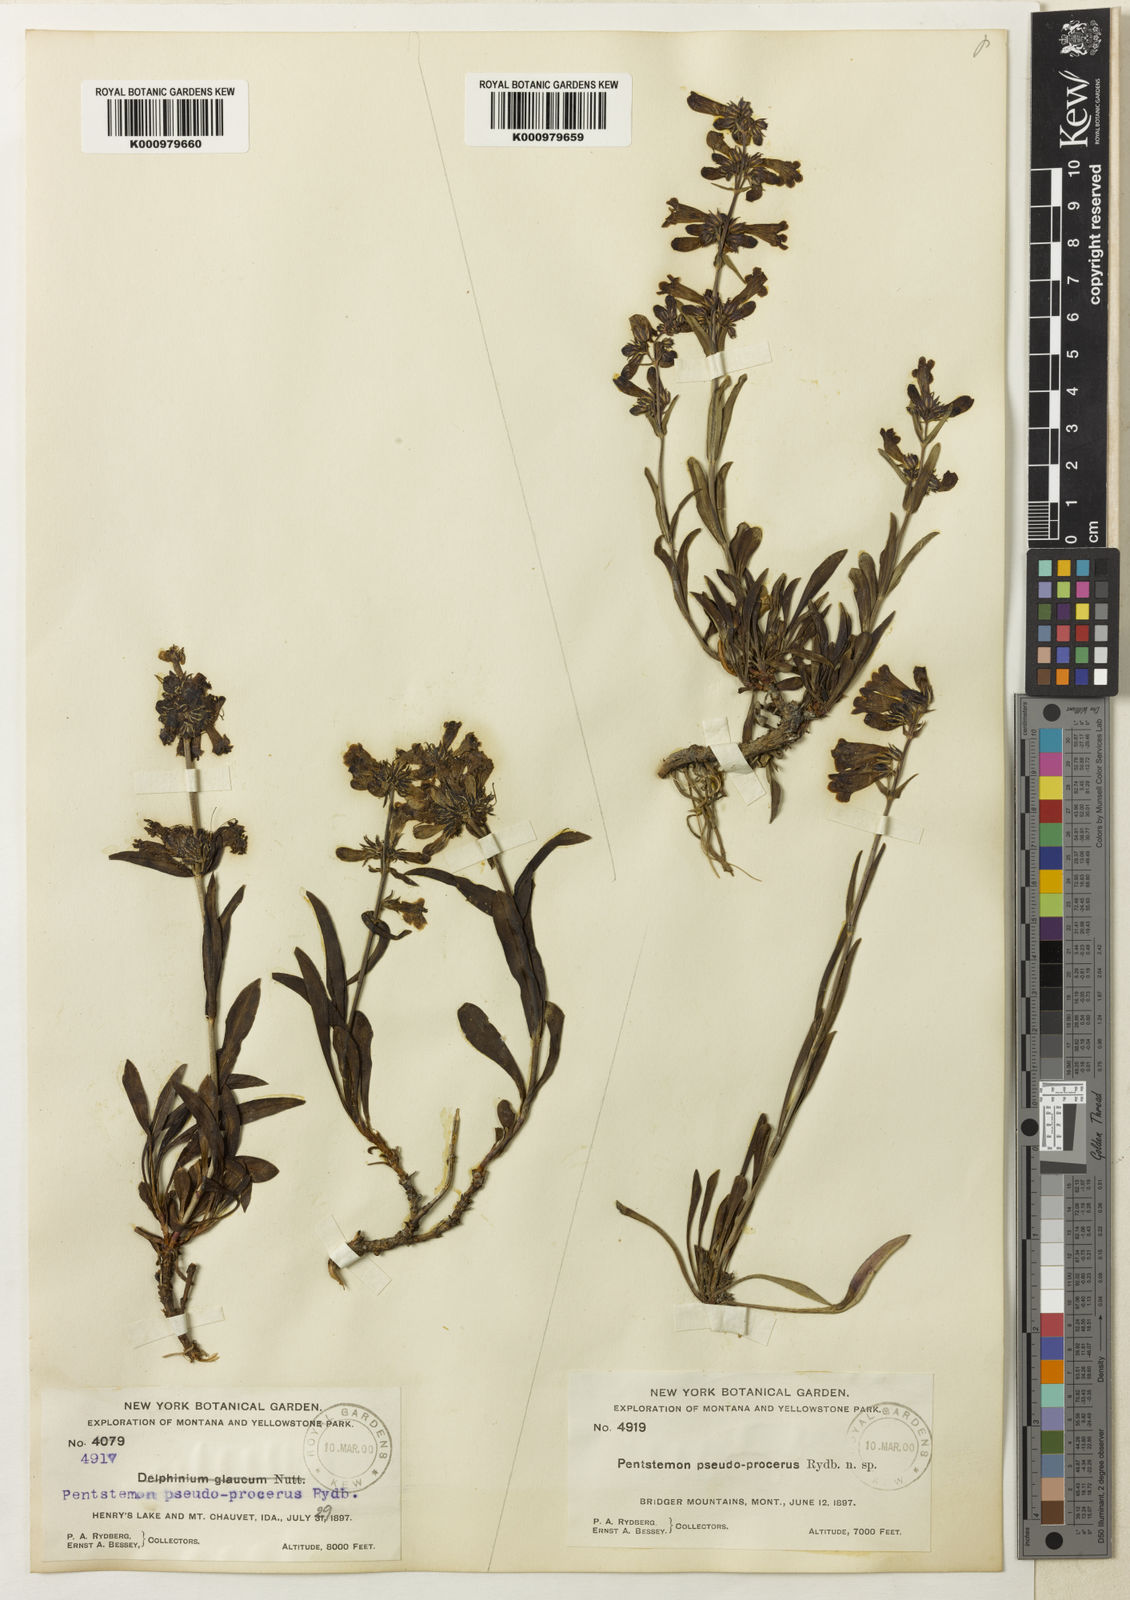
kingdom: Plantae
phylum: Tracheophyta
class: Magnoliopsida
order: Lamiales
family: Plantaginaceae
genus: Penstemon
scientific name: Penstemon attenuatus
